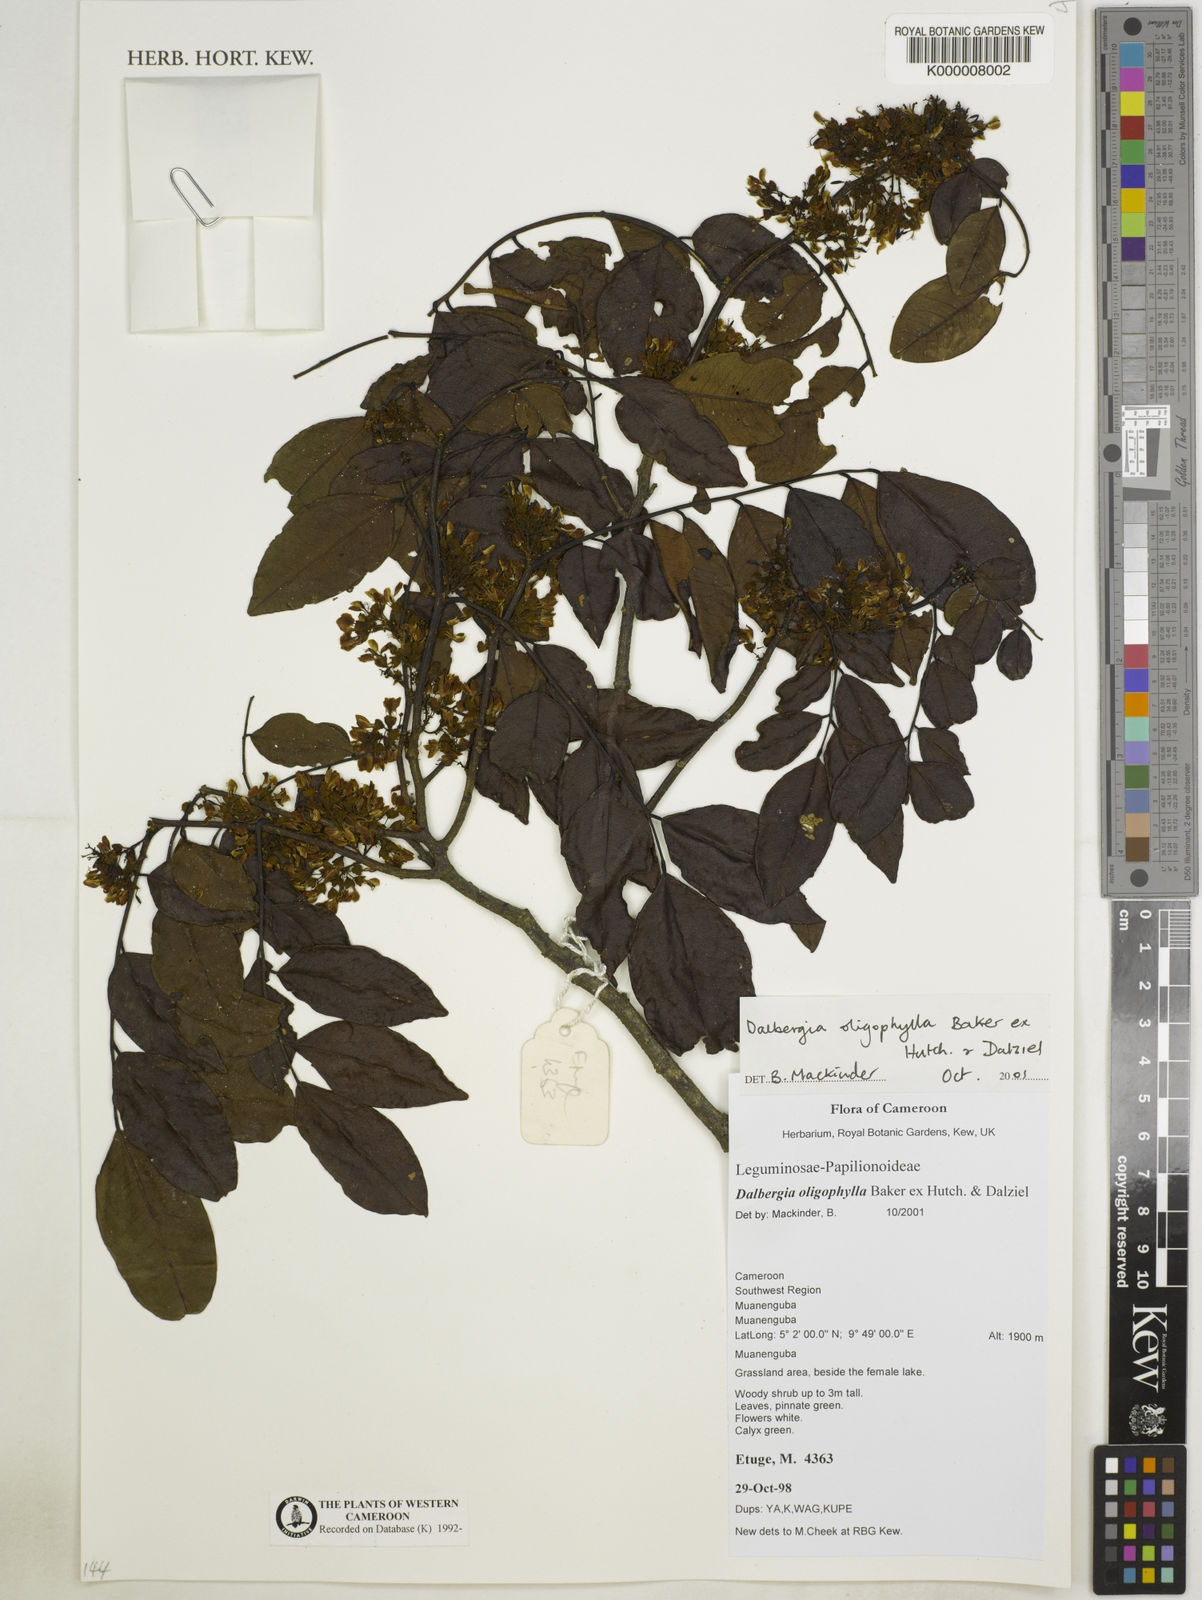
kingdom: Plantae
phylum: Tracheophyta
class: Magnoliopsida
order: Fabales
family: Fabaceae
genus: Dalbergia
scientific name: Dalbergia oligophylla
